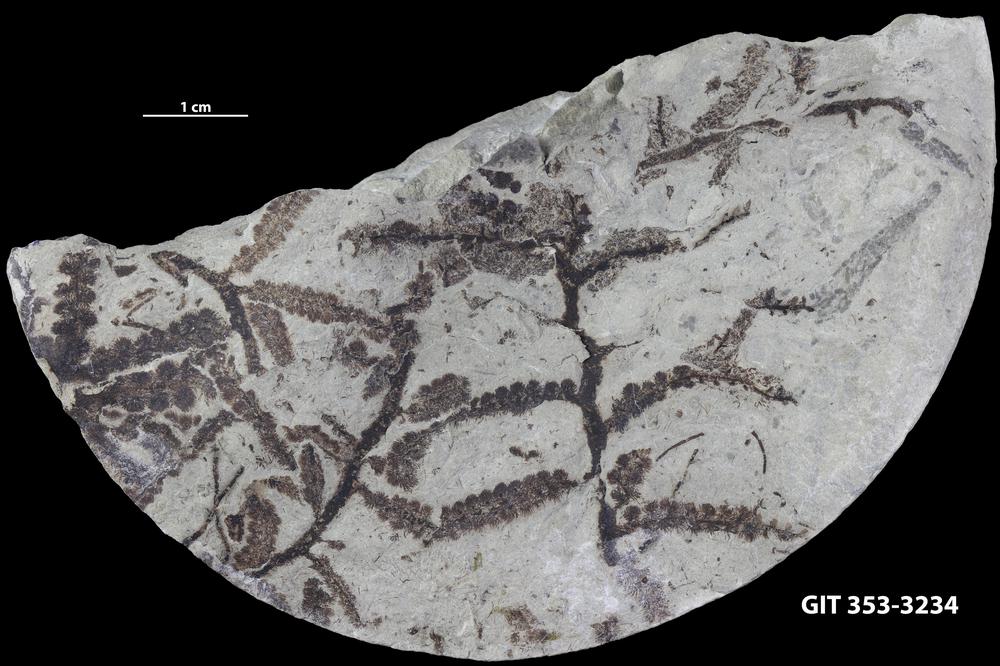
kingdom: Plantae
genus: Leveilleites
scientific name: Leveilleites hartnageli
